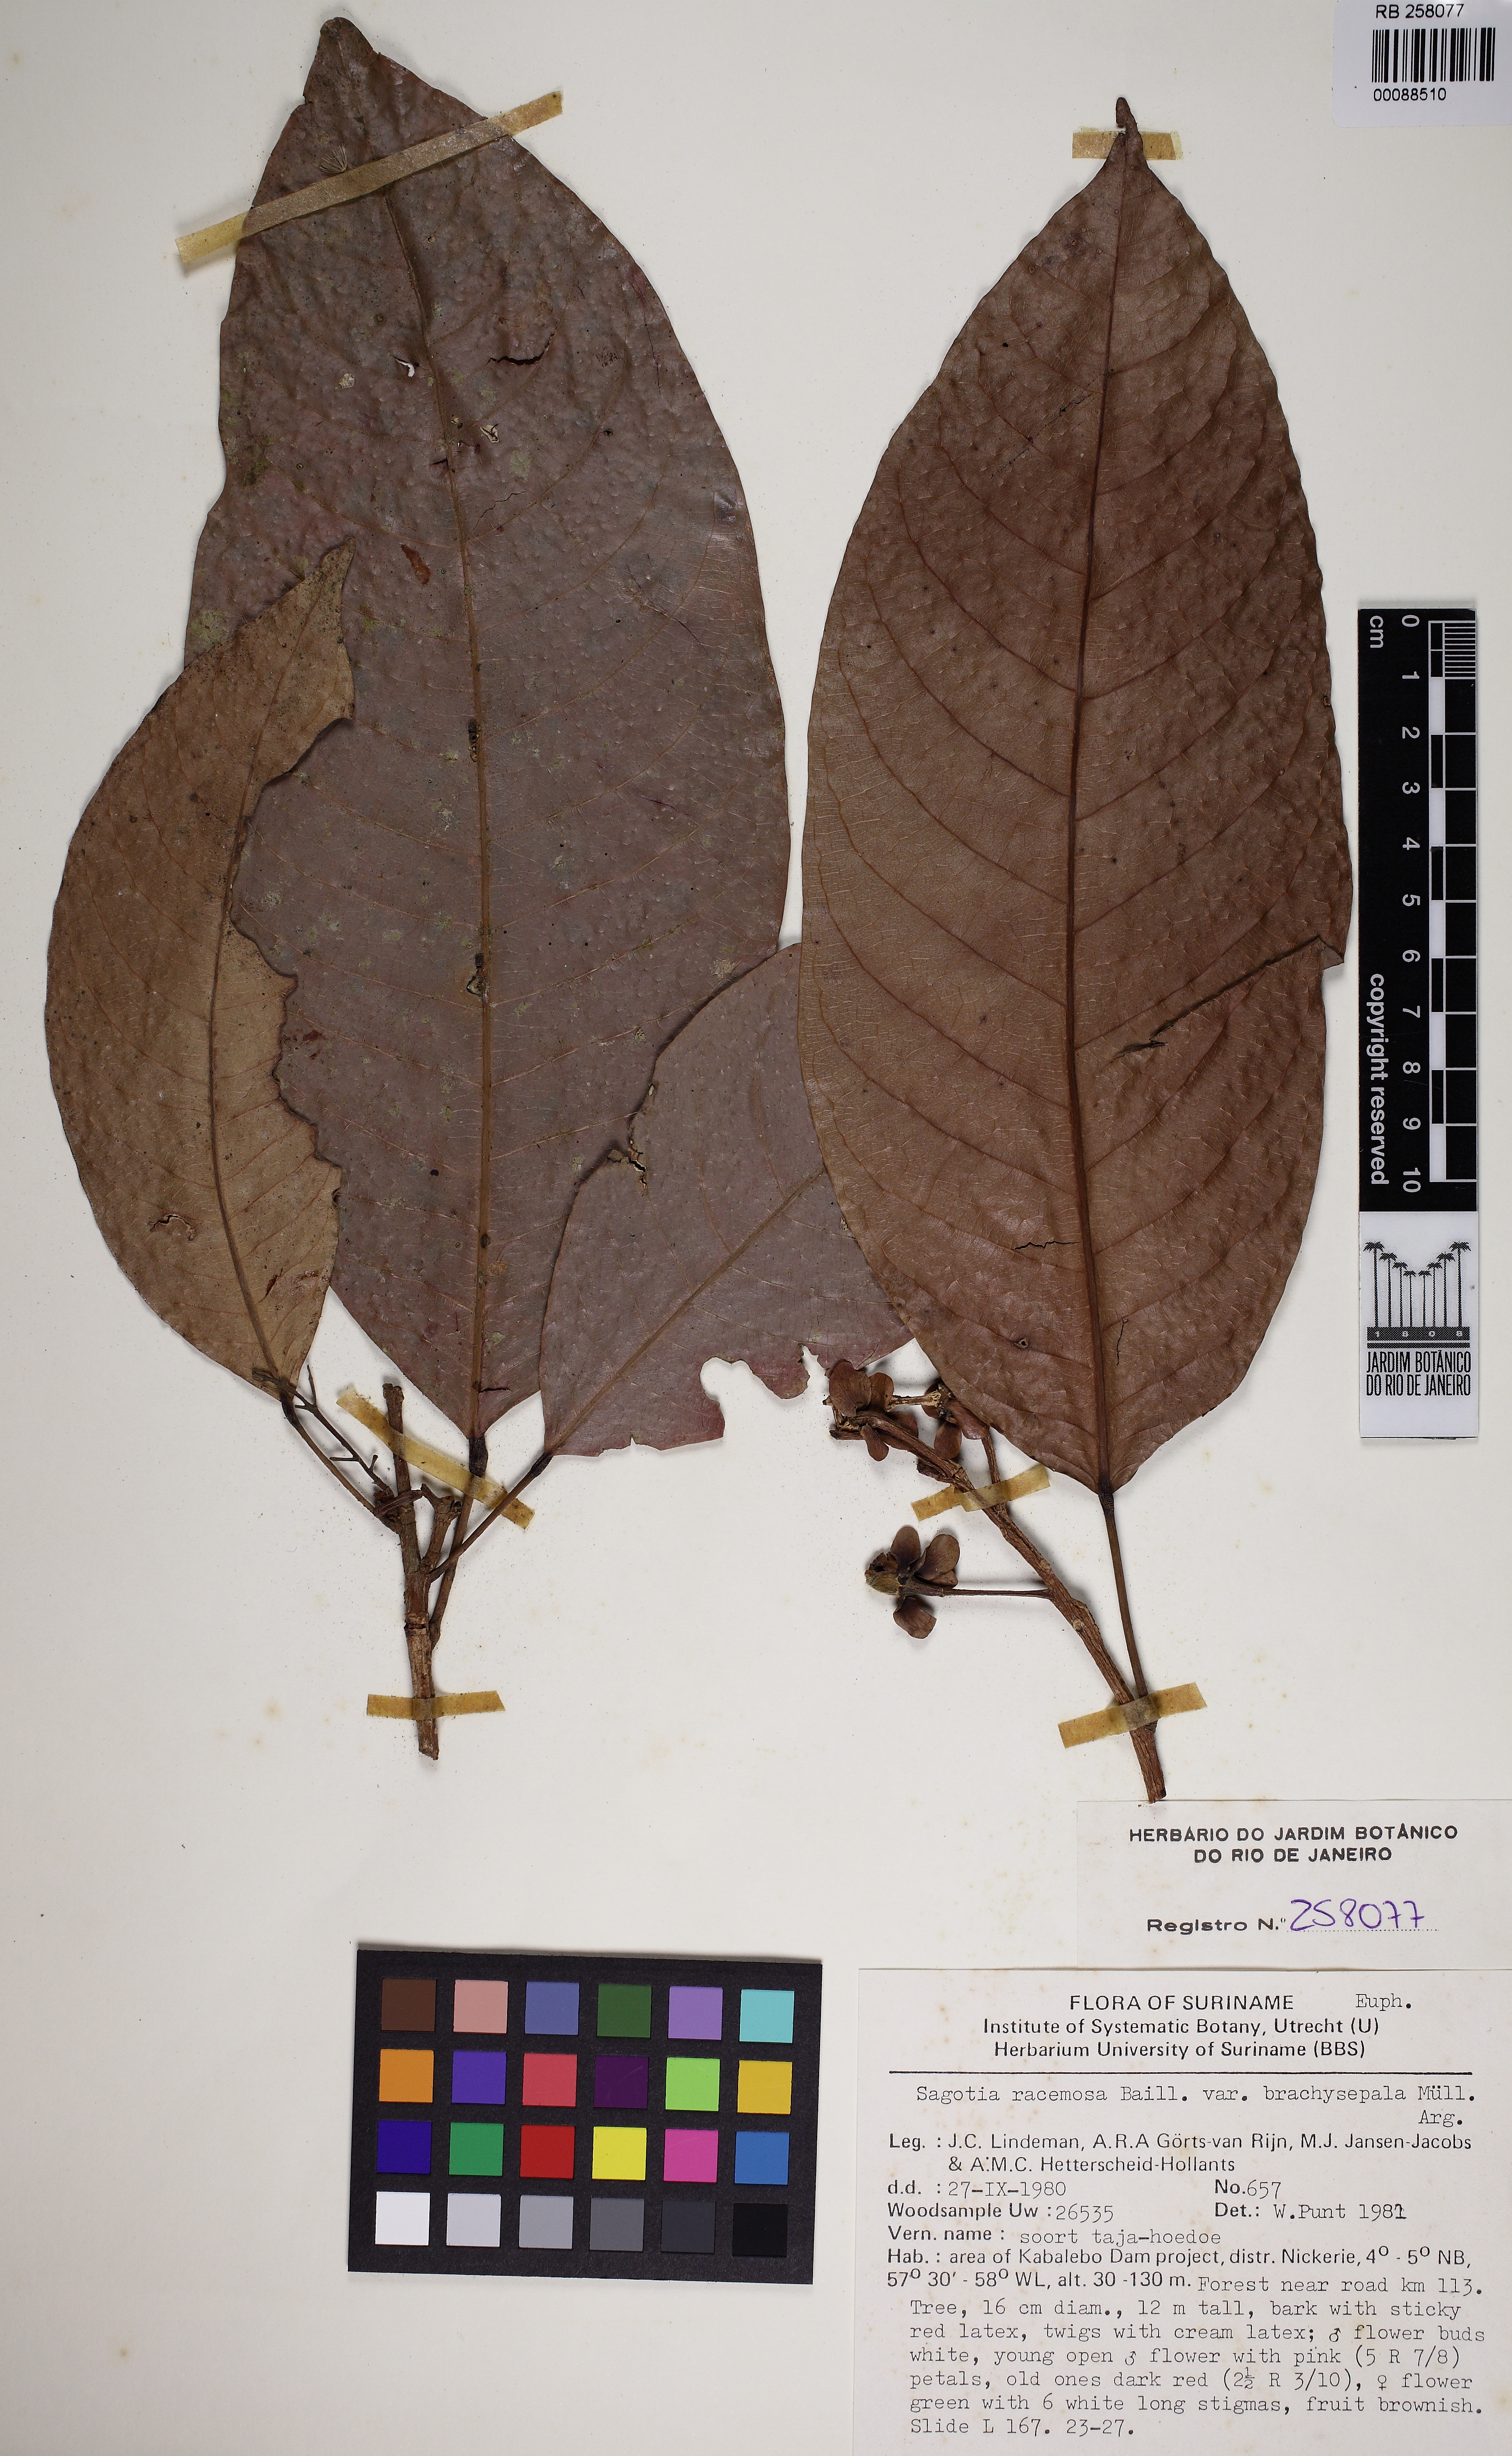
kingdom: Plantae
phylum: Tracheophyta
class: Magnoliopsida
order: Malpighiales
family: Euphorbiaceae
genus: Sagotia
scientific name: Sagotia racemosa
